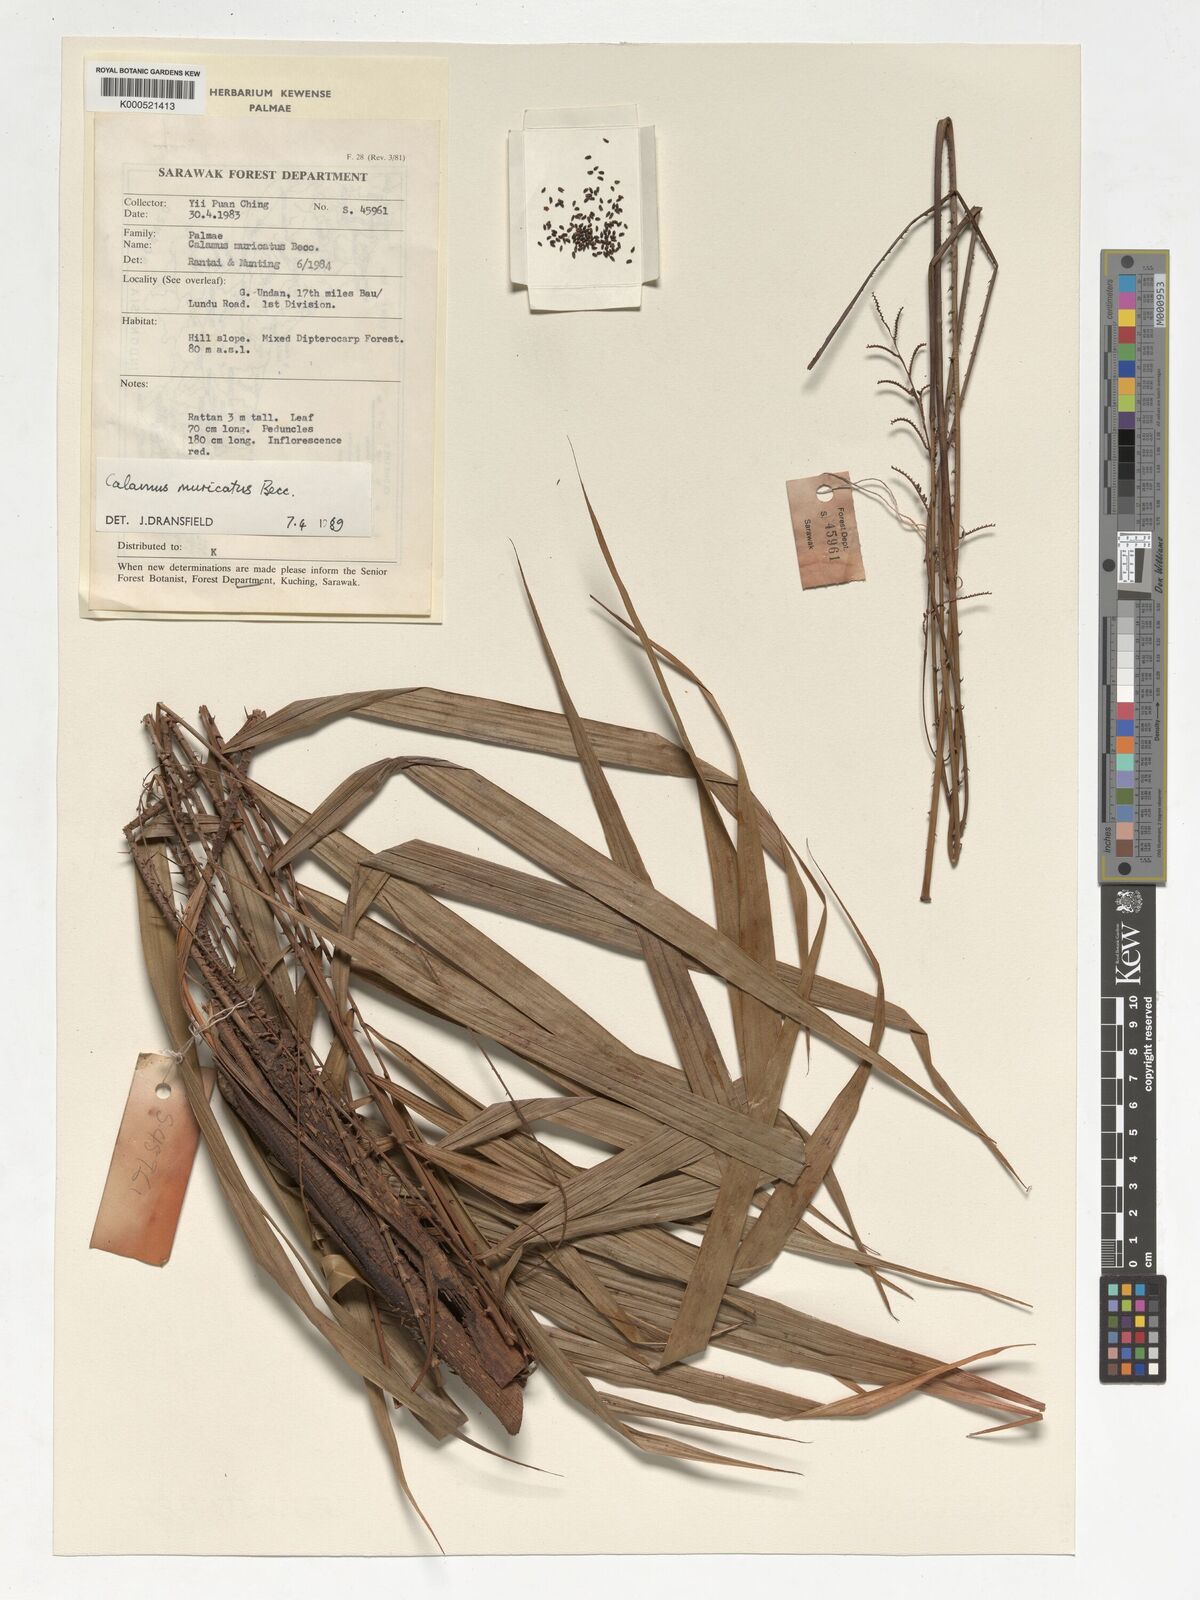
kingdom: Plantae
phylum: Tracheophyta
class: Liliopsida
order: Arecales
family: Arecaceae
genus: Calamus
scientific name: Calamus muricatus
